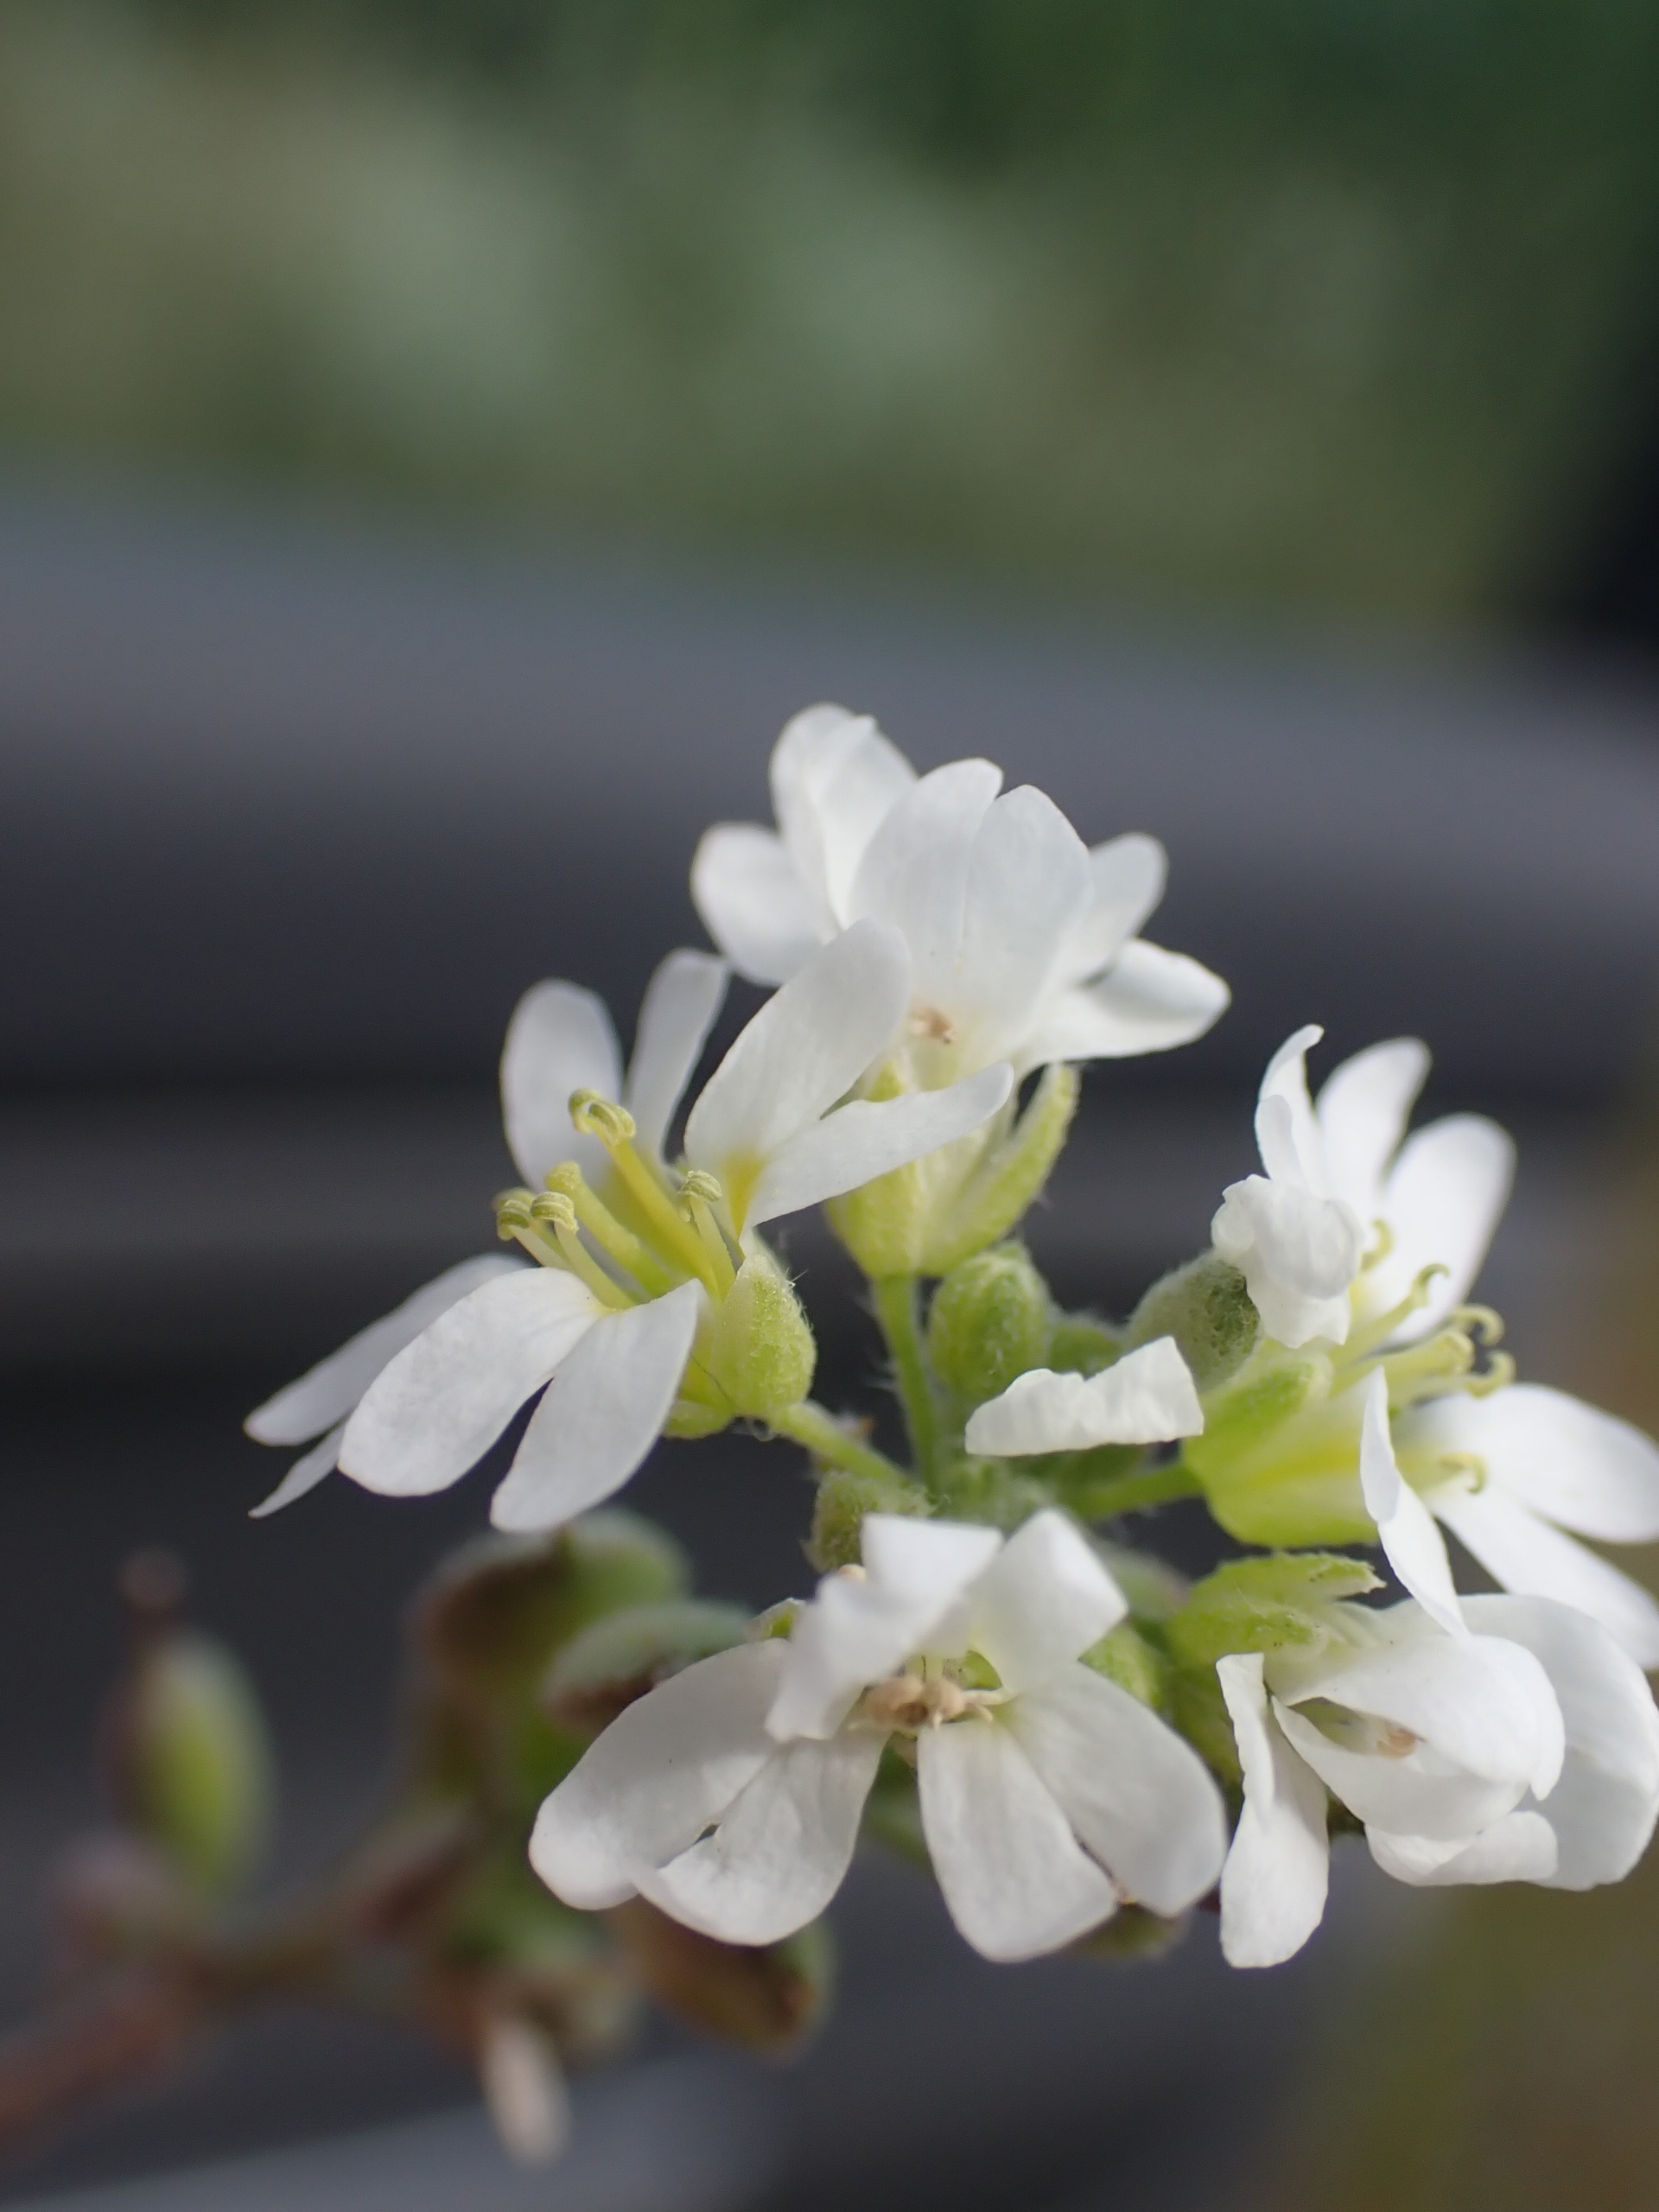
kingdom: Plantae
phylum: Tracheophyta
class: Magnoliopsida
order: Brassicales
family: Brassicaceae
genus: Berteroa
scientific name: Berteroa incana
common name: Kløvplade
